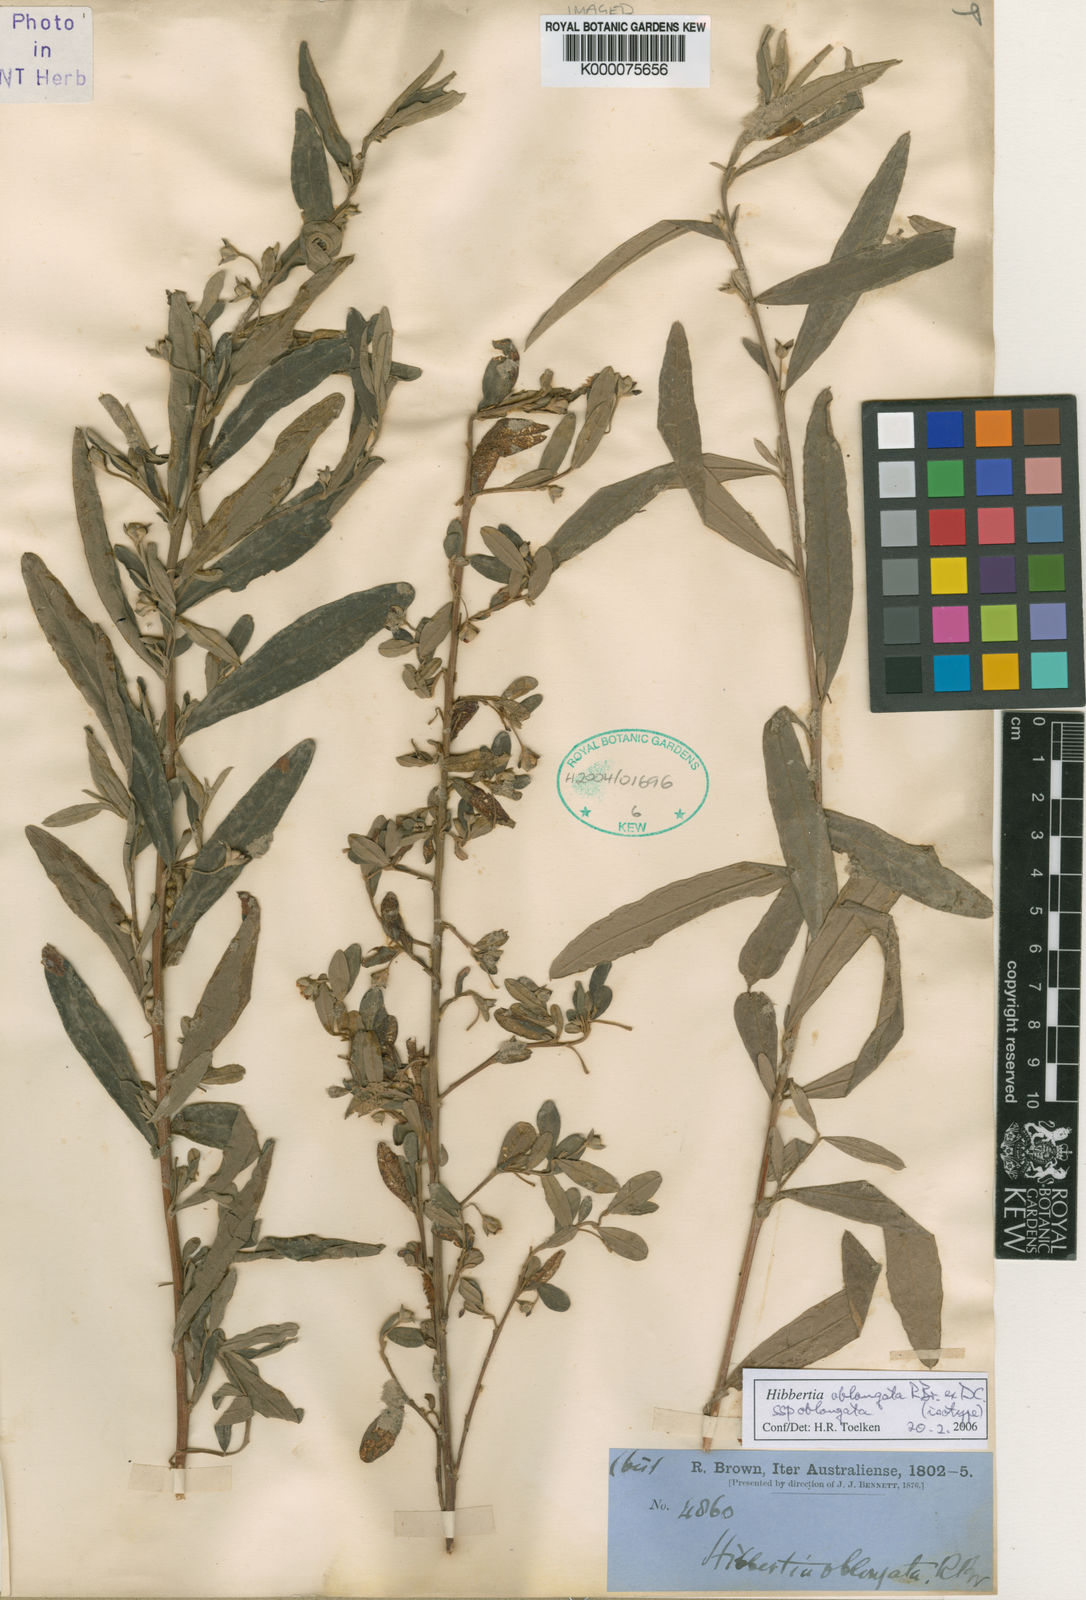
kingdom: Plantae
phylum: Tracheophyta
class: Magnoliopsida
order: Dilleniales
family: Dilleniaceae
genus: Hibbertia
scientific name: Hibbertia
